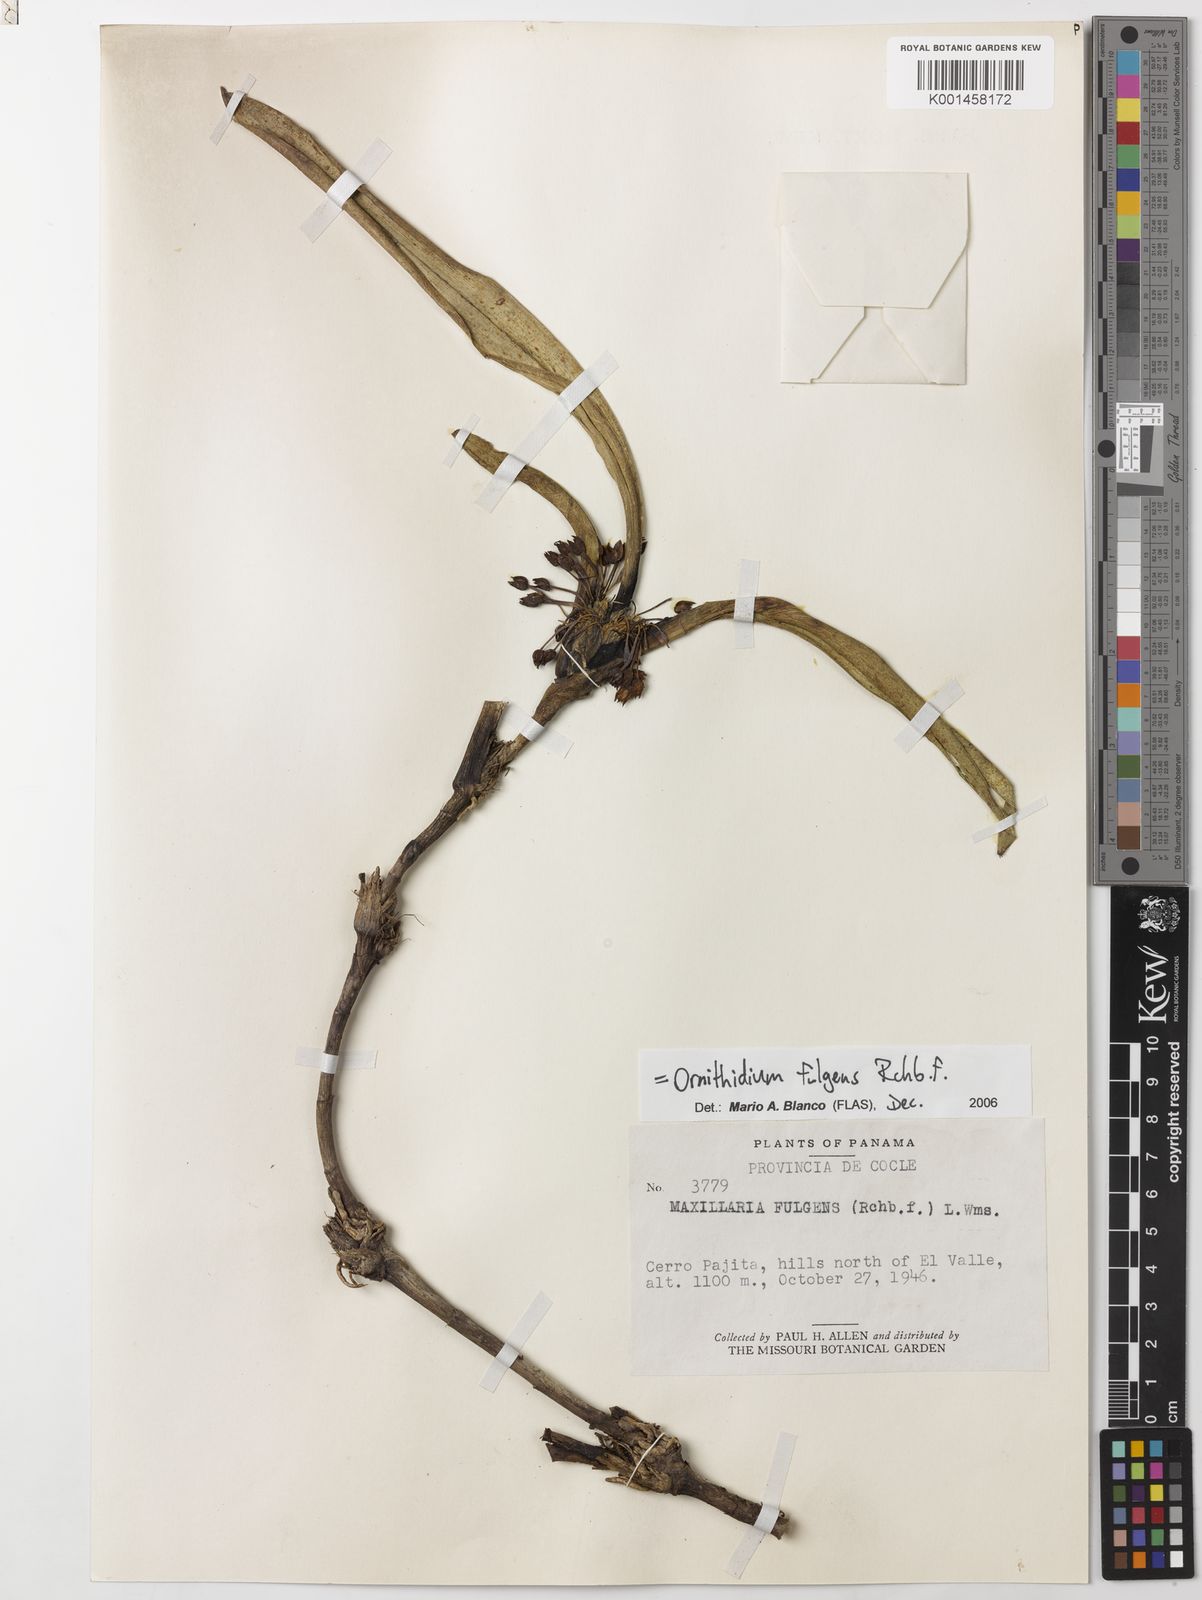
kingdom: Plantae
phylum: Tracheophyta
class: Liliopsida
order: Asparagales
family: Orchidaceae
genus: Maxillaria
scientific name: Maxillaria fulgens
